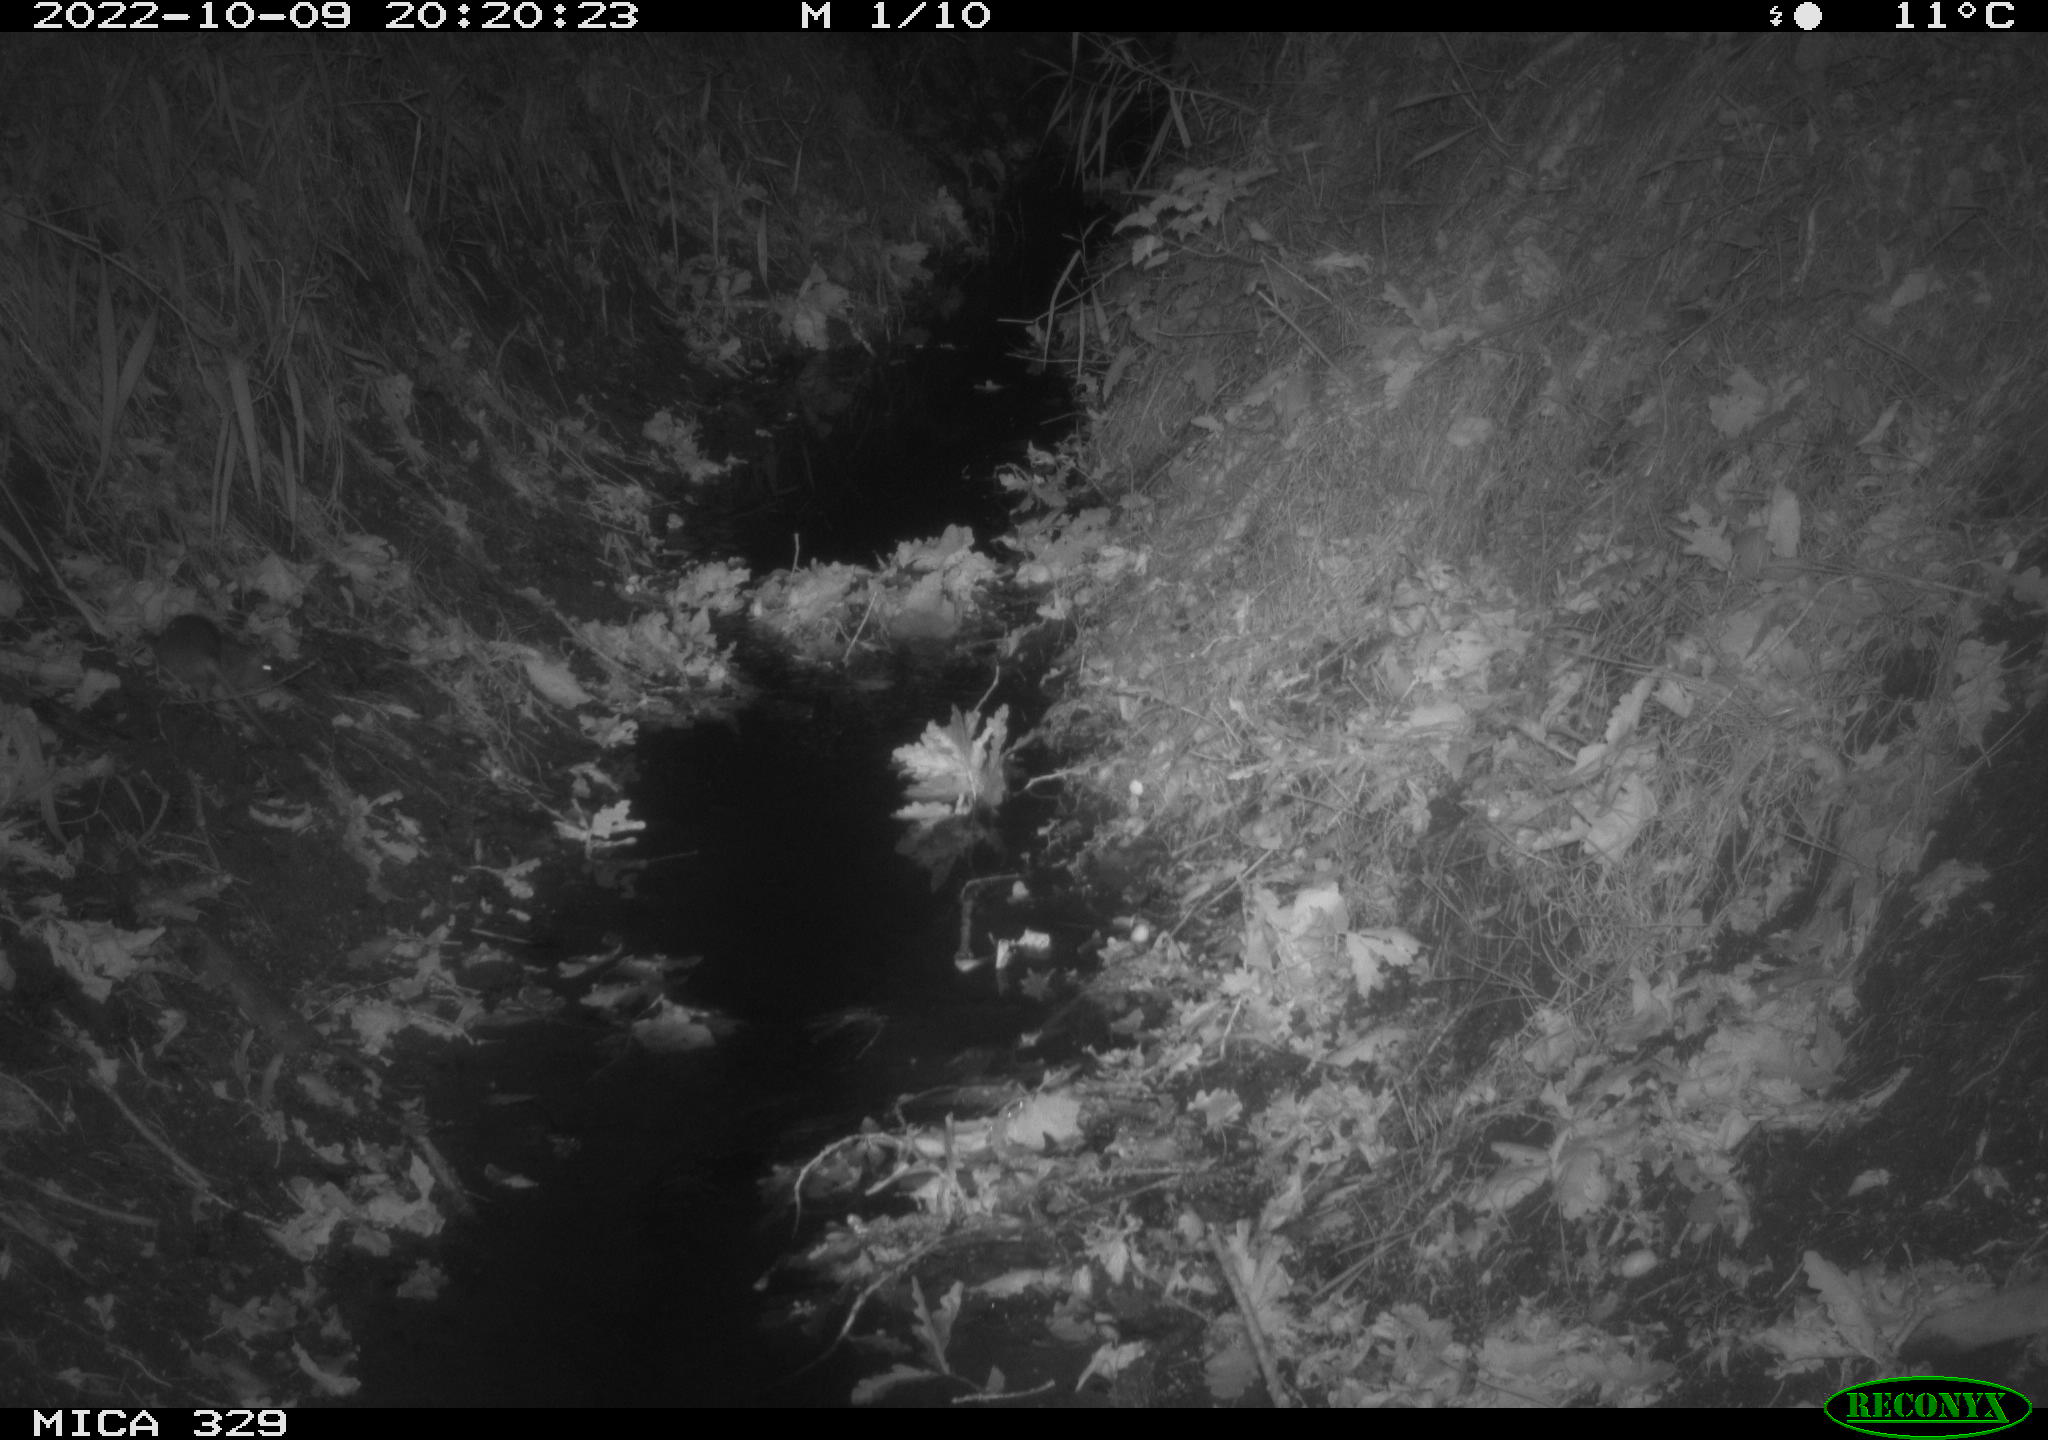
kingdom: Animalia
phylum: Chordata
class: Mammalia
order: Rodentia
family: Muridae
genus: Rattus
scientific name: Rattus norvegicus
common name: Brown rat
